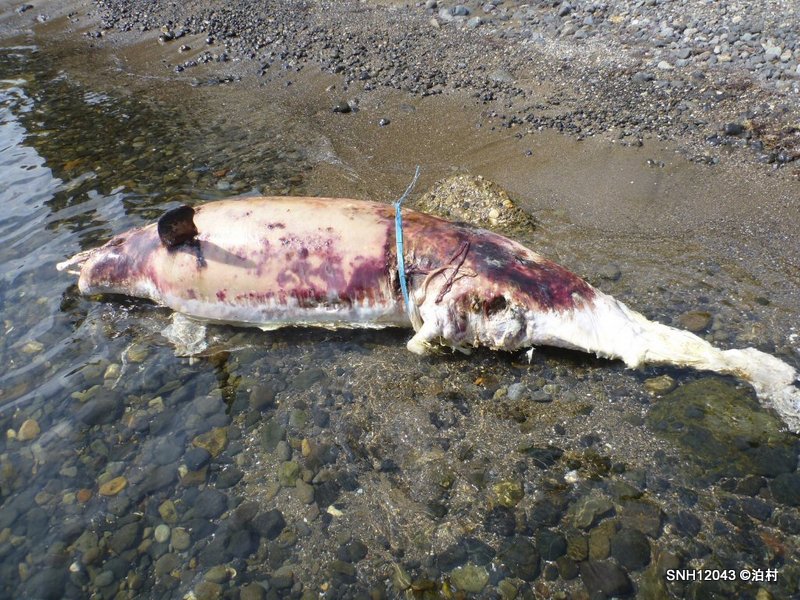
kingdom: Animalia
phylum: Chordata
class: Mammalia
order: Cetacea
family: Delphinidae
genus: Lagenorhynchus
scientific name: Lagenorhynchus obliquidens
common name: Pacific white-sided dolphin
